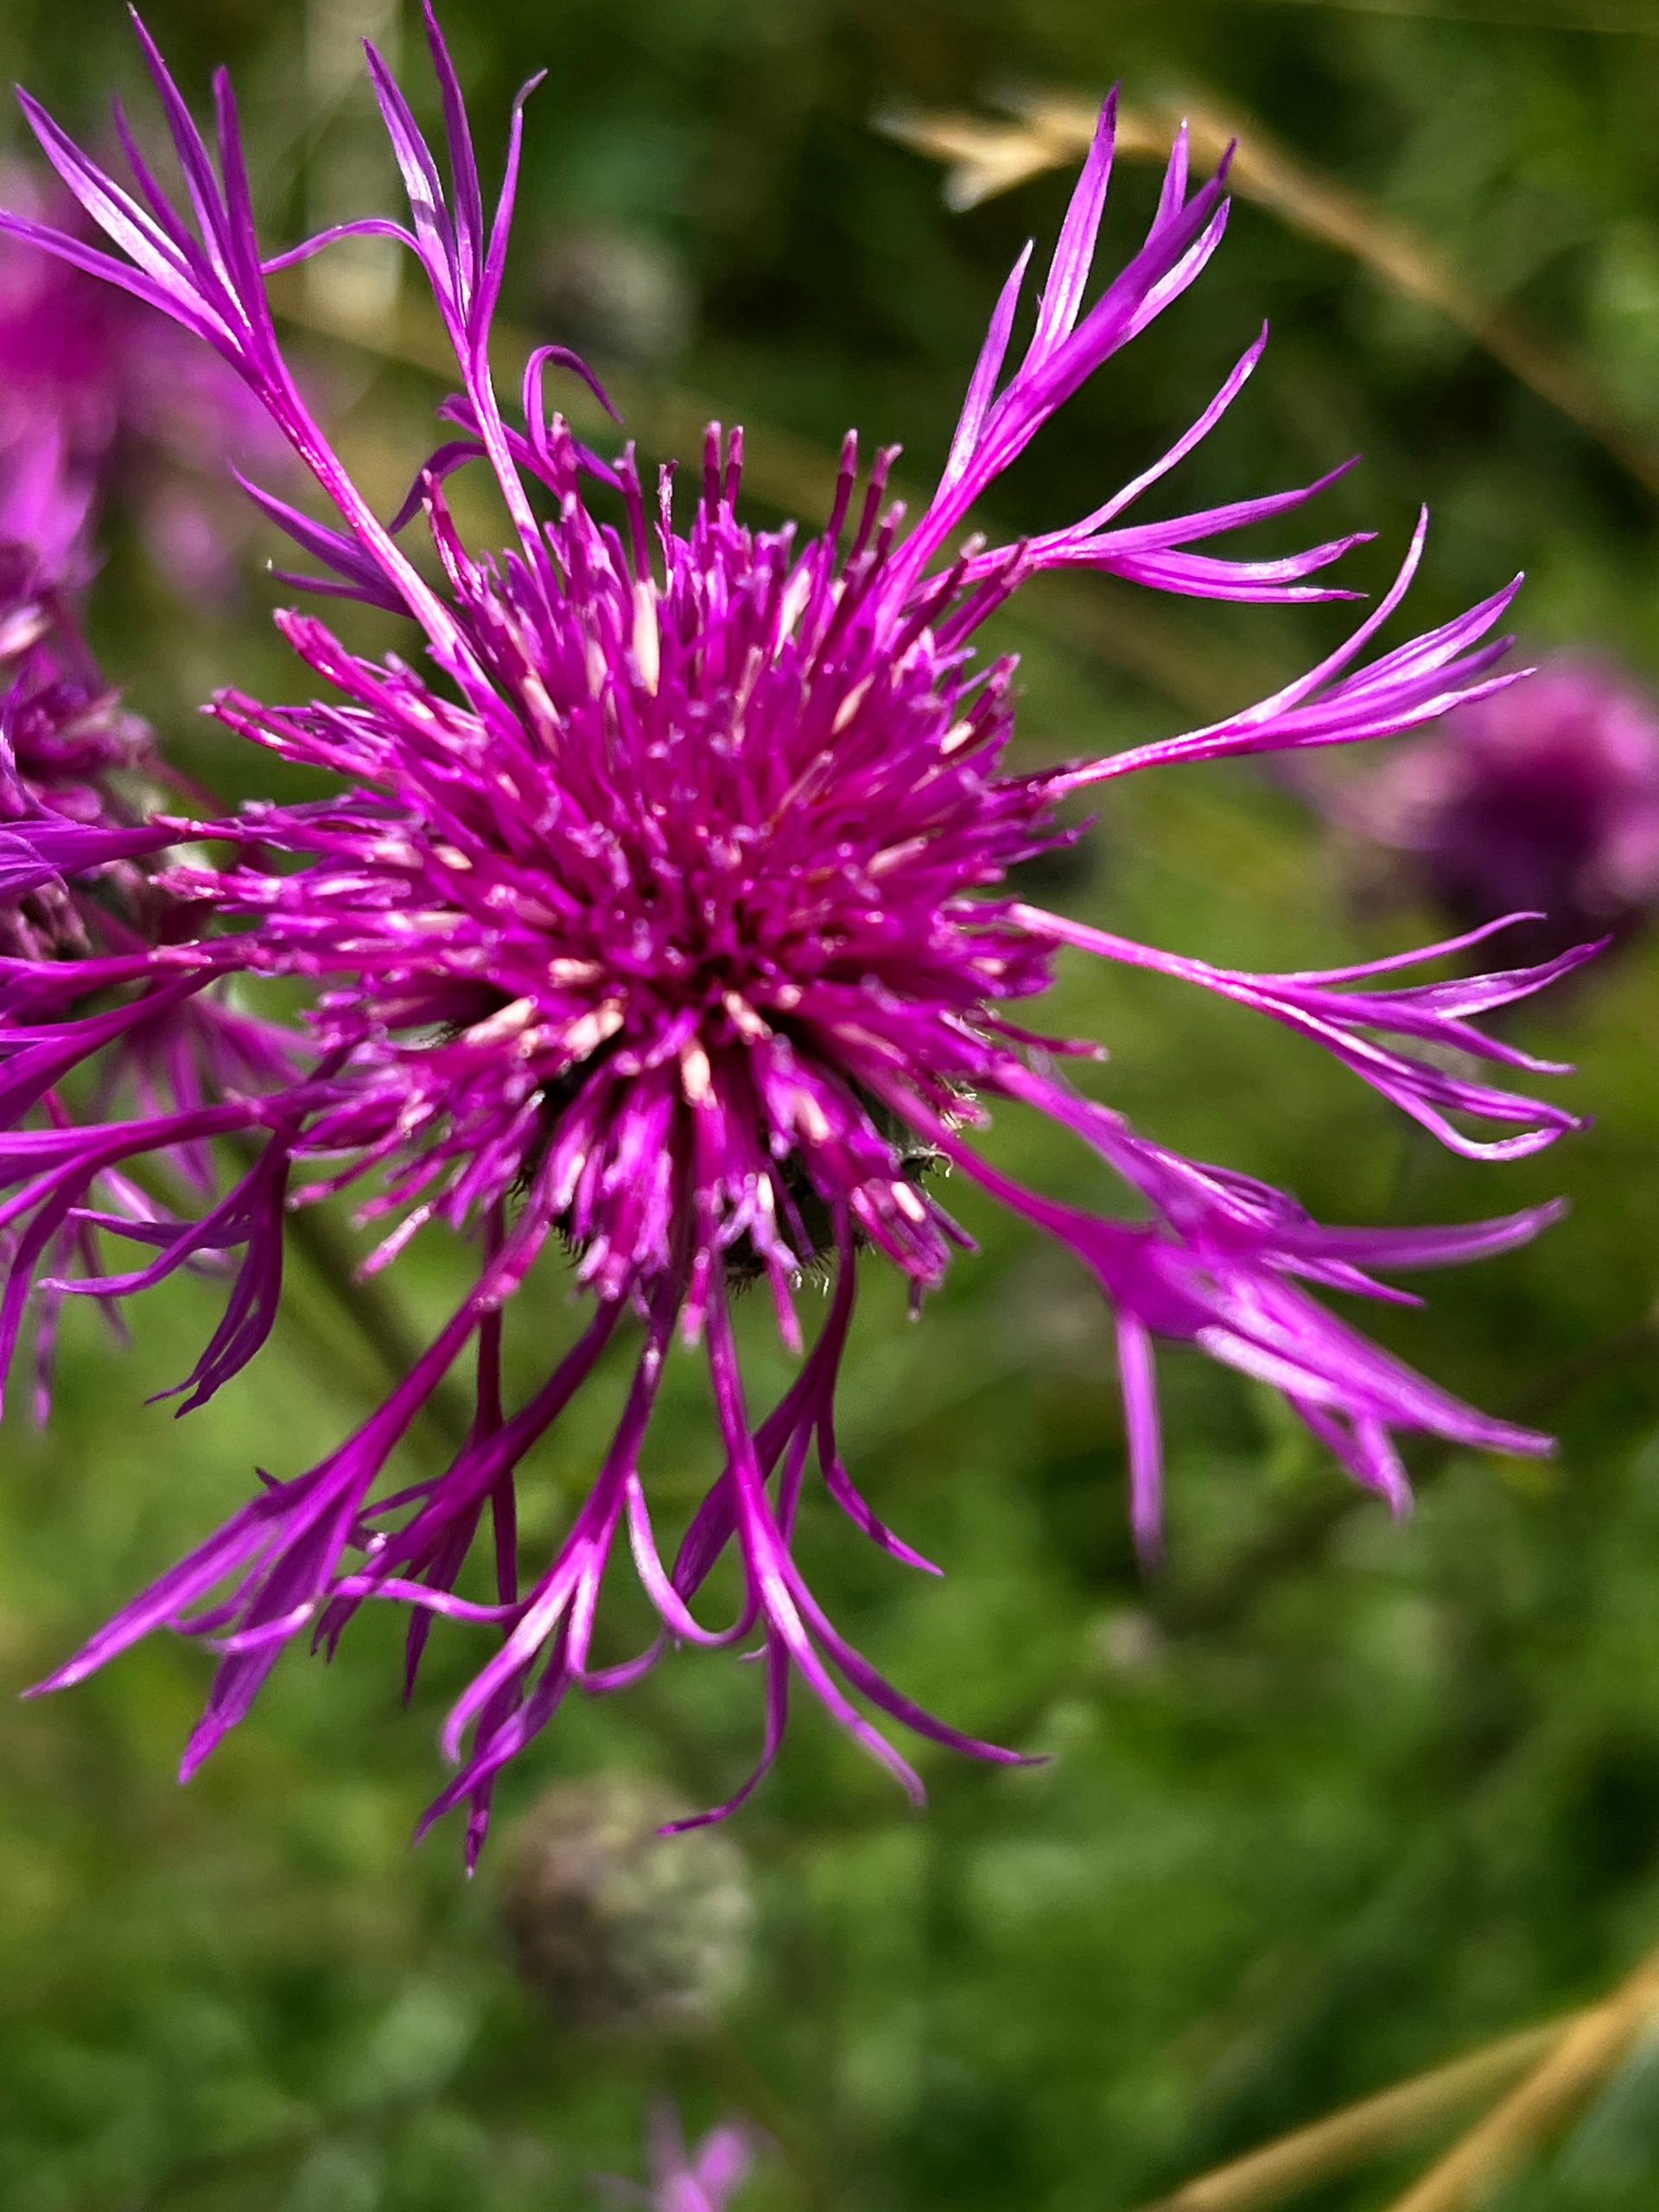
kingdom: Plantae
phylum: Tracheophyta
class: Magnoliopsida
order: Asterales
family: Asteraceae
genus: Centaurea
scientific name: Centaurea scabiosa
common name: Stor knopurt
